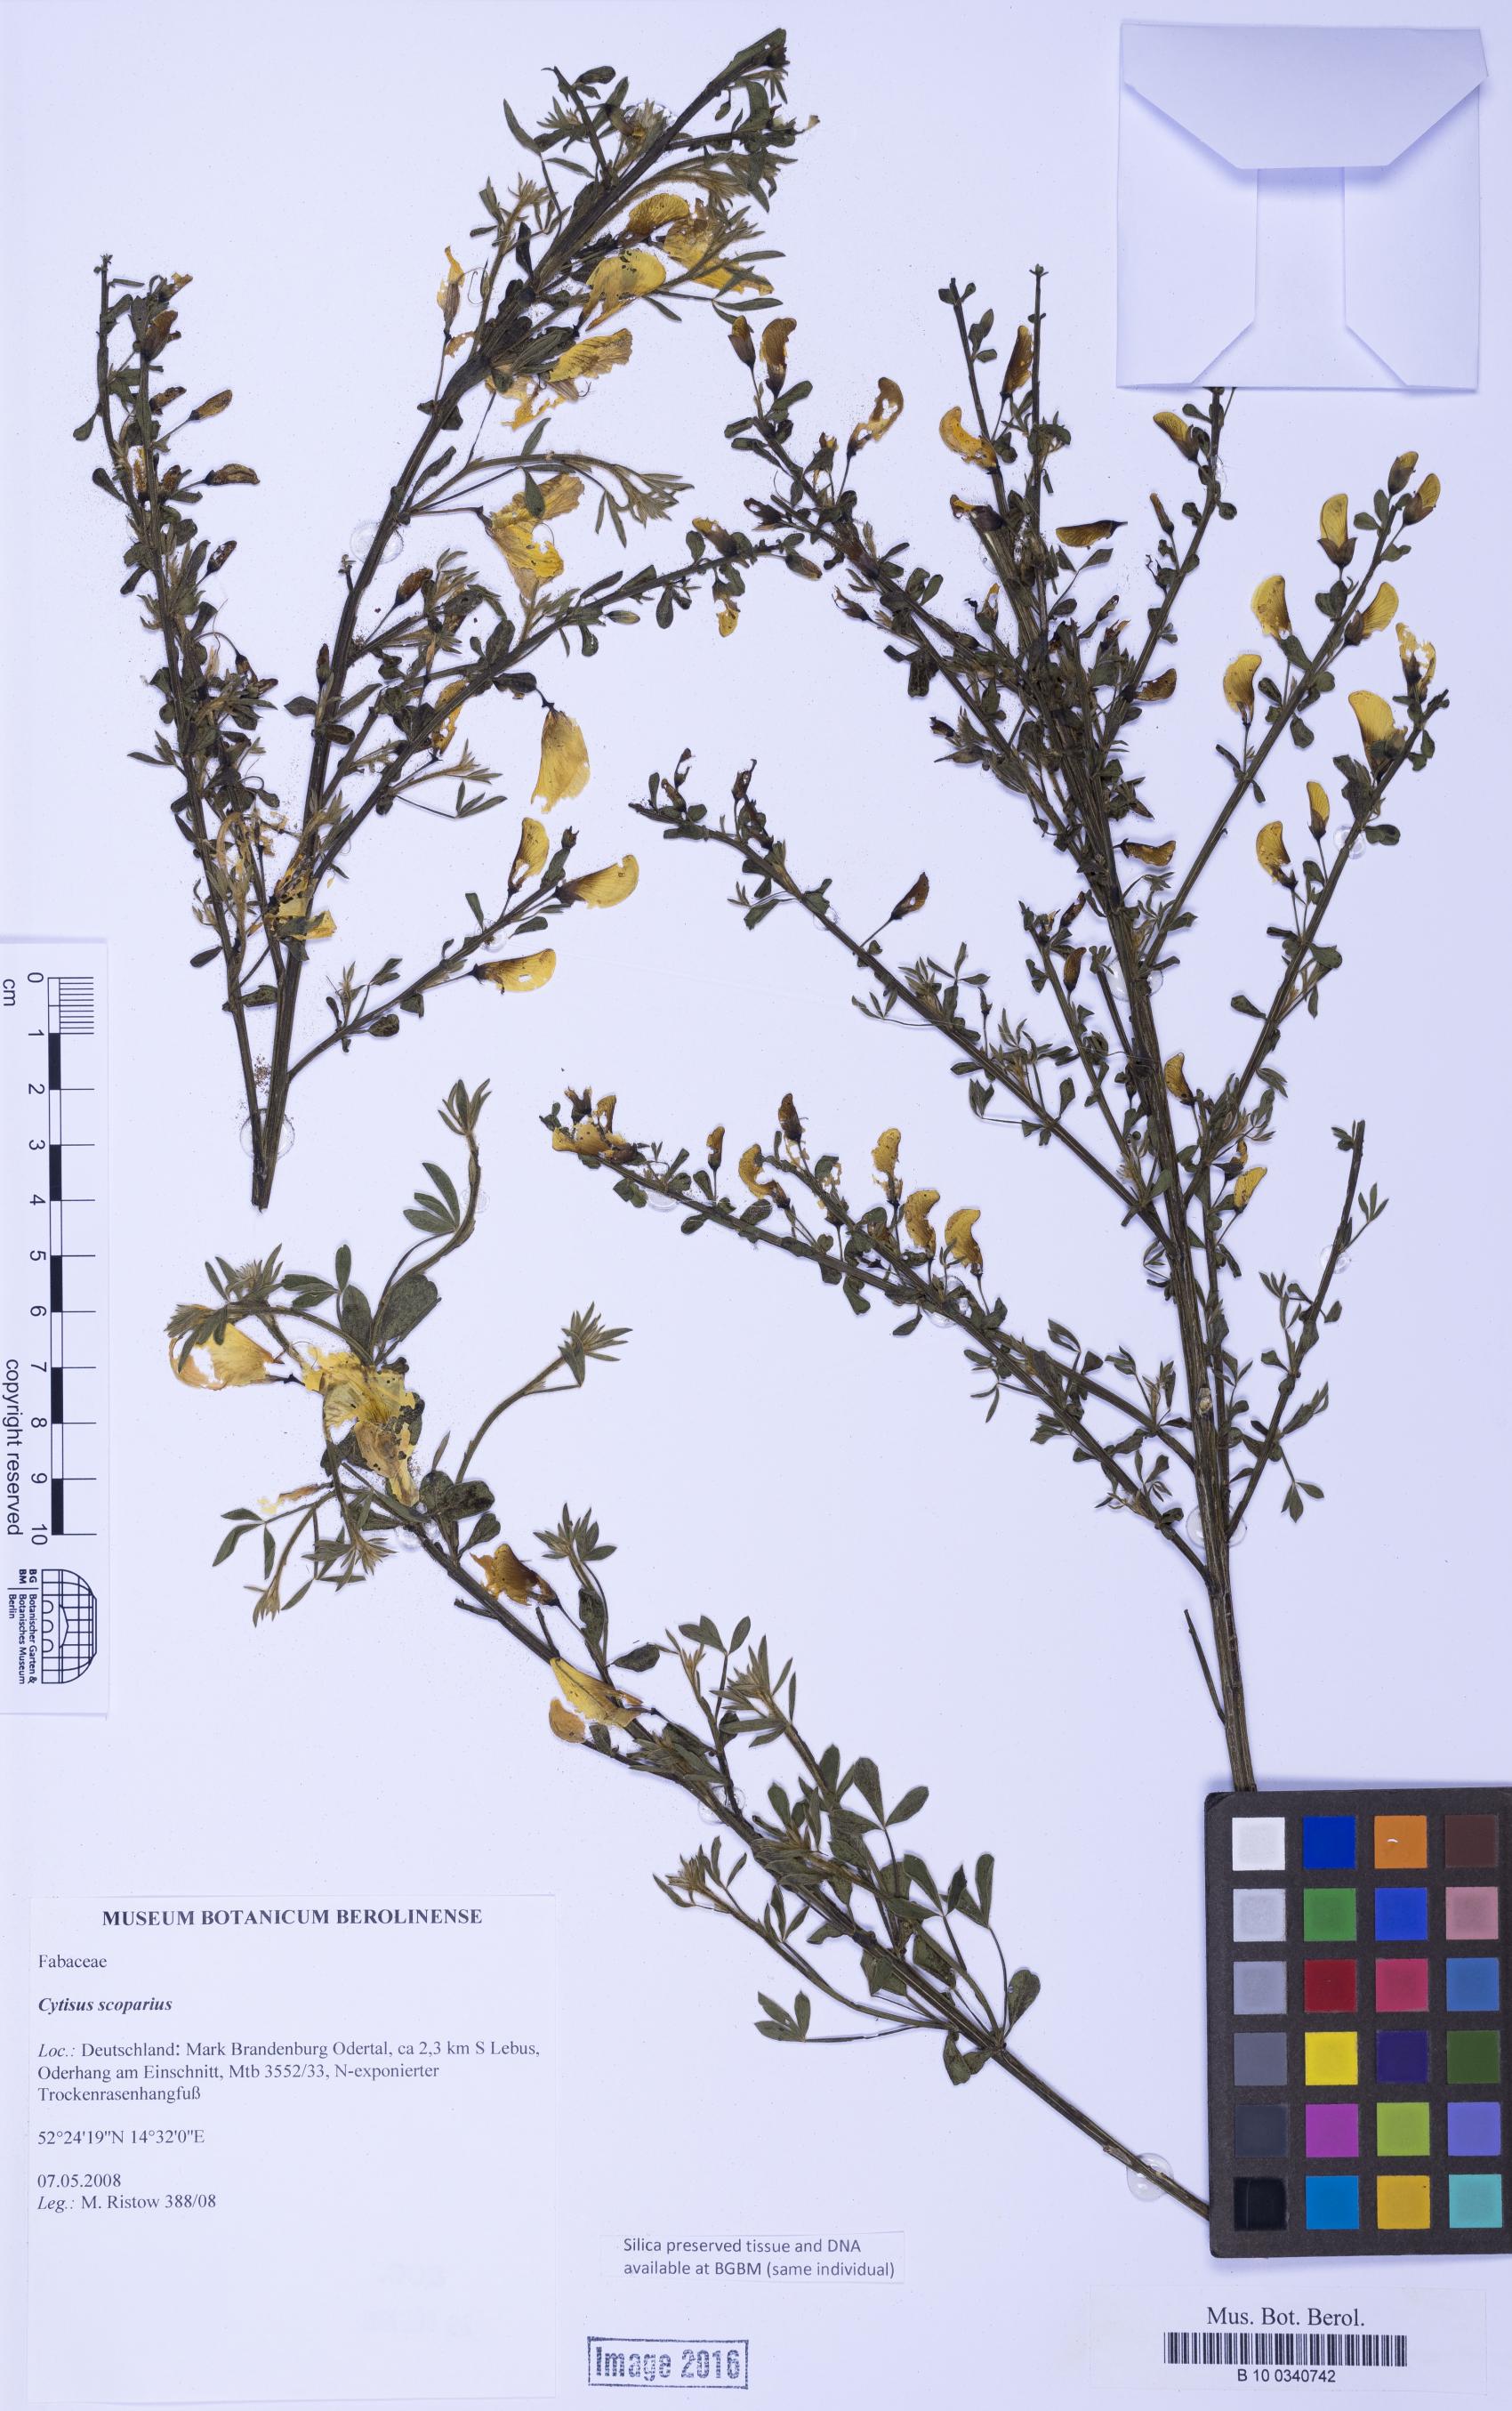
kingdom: Plantae
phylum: Tracheophyta
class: Magnoliopsida
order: Fabales
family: Fabaceae
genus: Cytisus
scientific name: Cytisus scoparius
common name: Scotch broom
